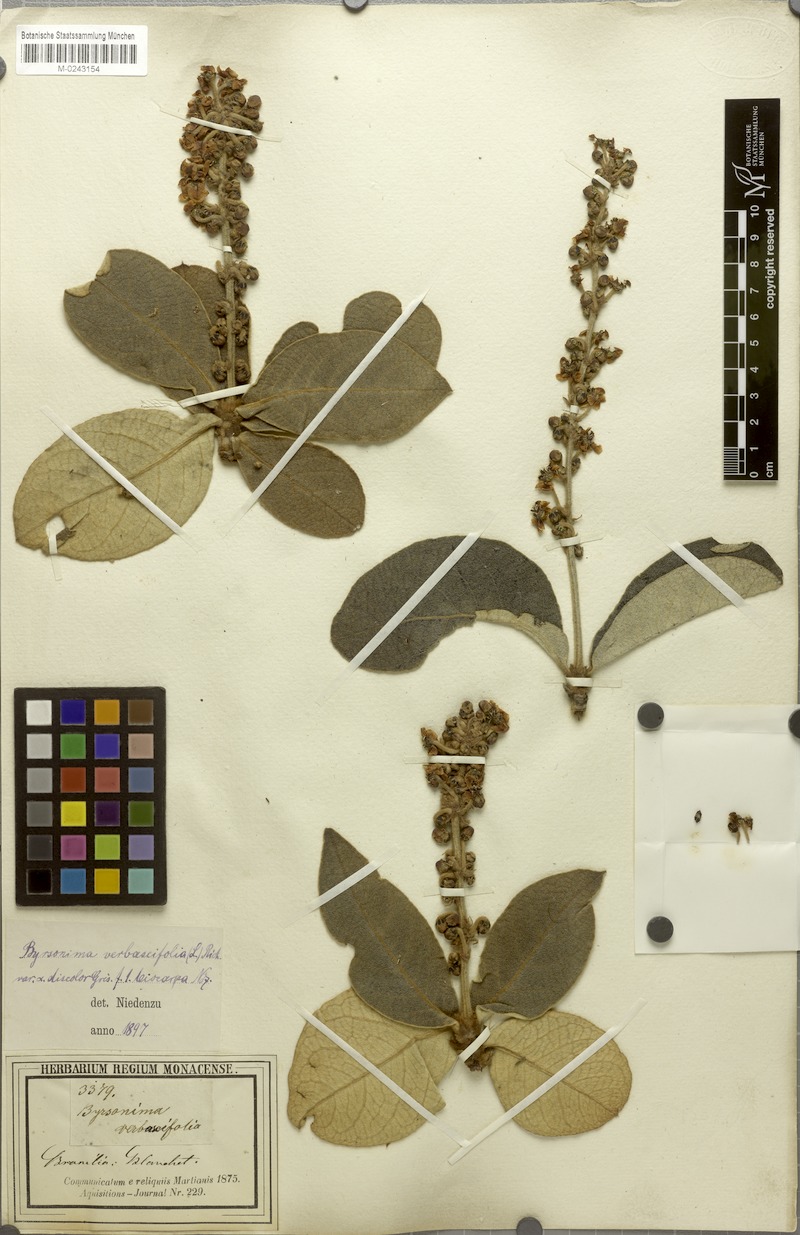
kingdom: Plantae
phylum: Tracheophyta
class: Magnoliopsida
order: Malpighiales
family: Malpighiaceae
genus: Byrsonima
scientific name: Byrsonima verbascifolia
